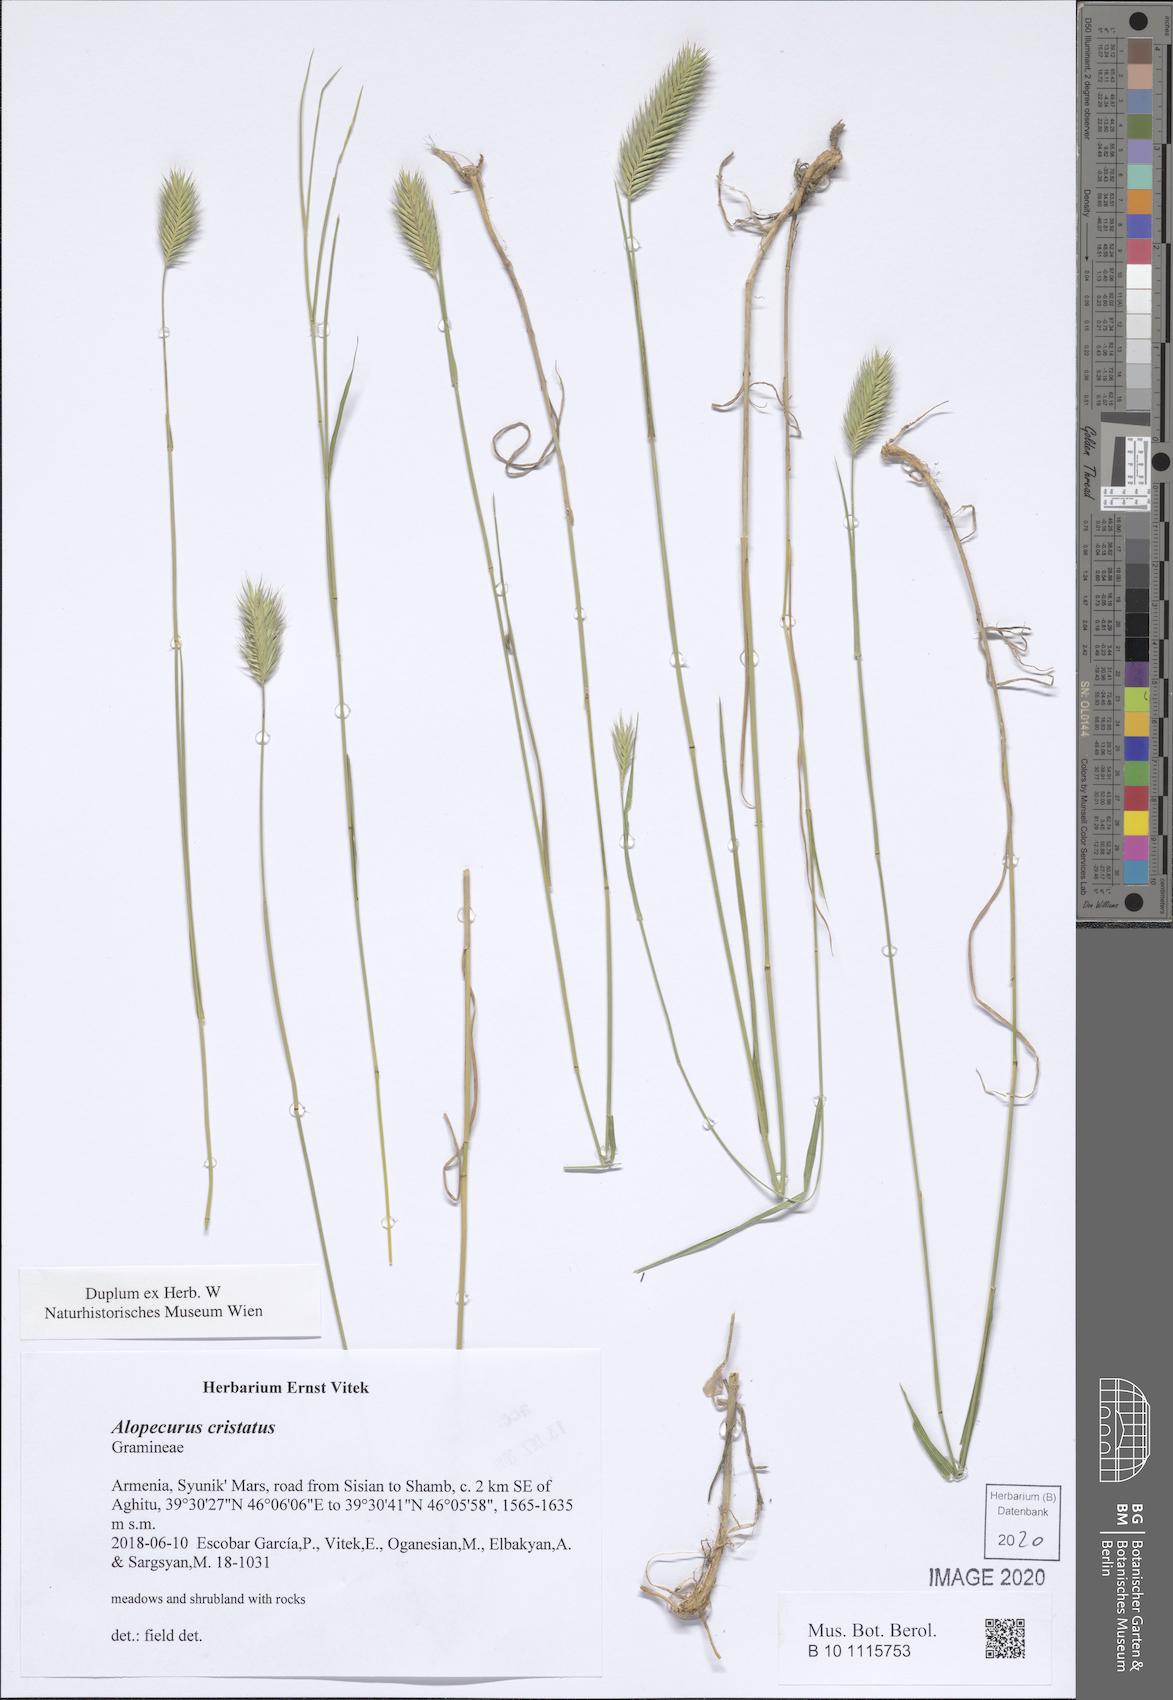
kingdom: Plantae
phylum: Tracheophyta
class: Liliopsida
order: Poales
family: Poaceae
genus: Alopecurus
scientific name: Alopecurus
